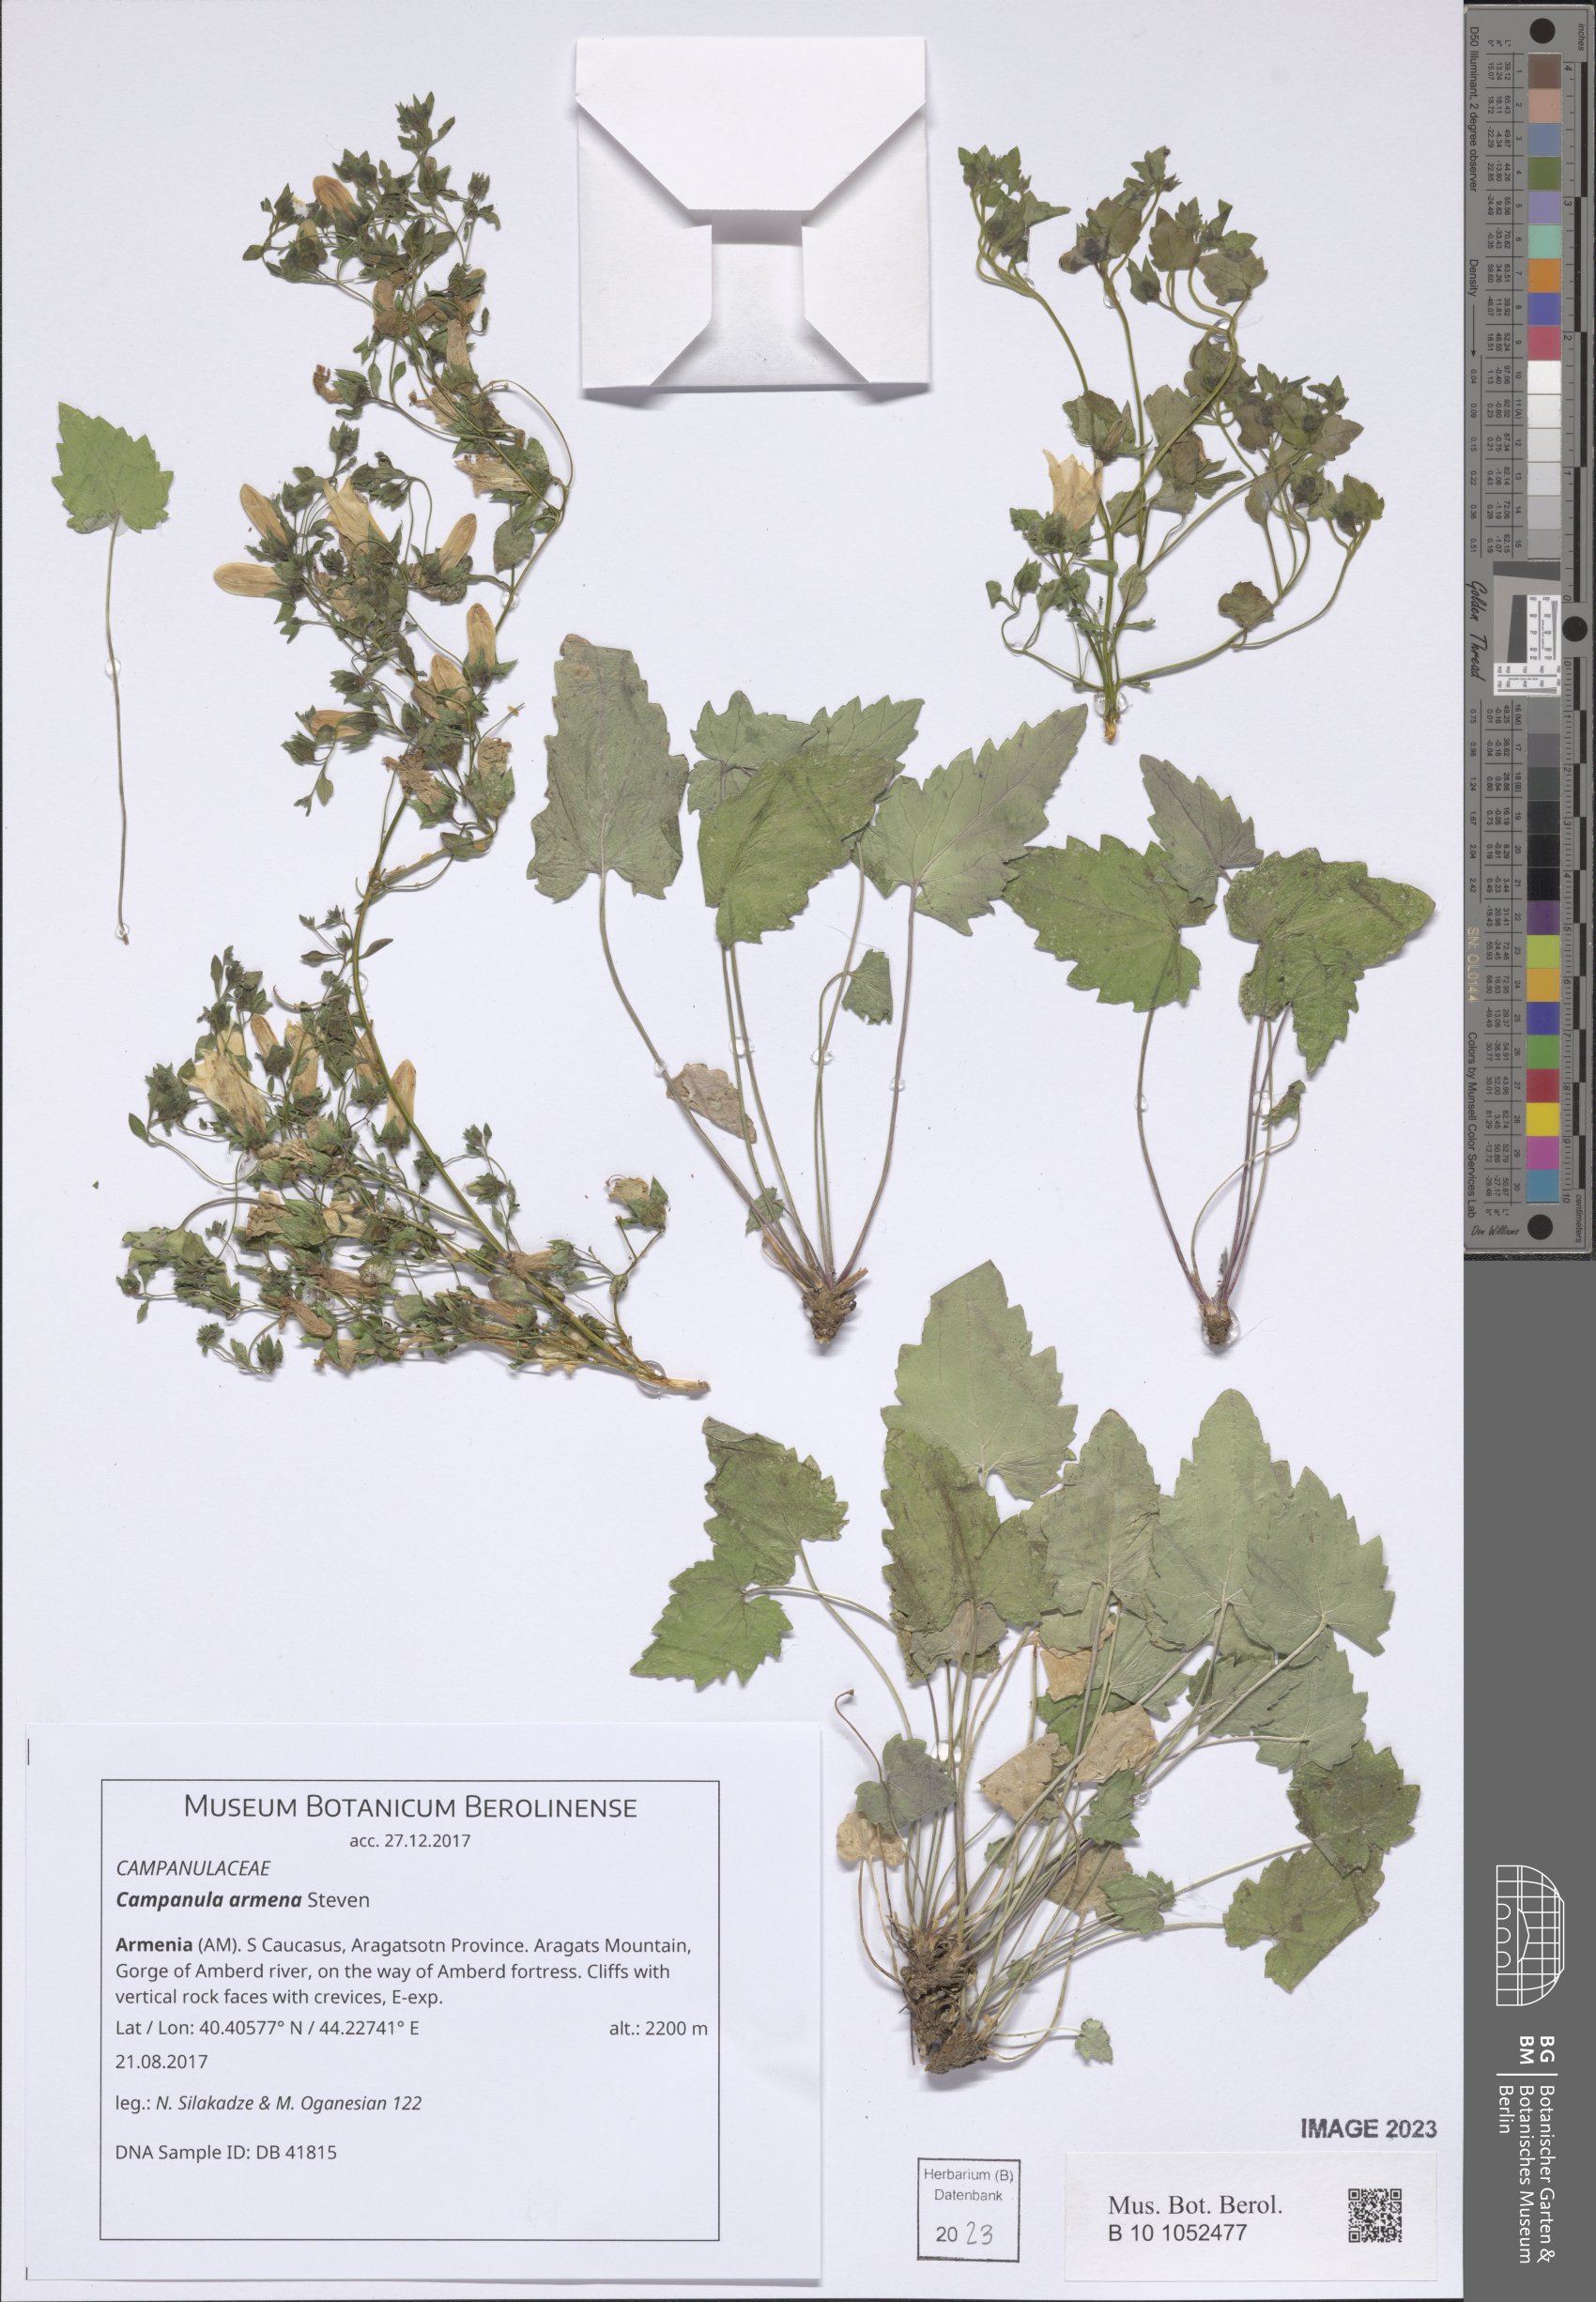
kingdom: Plantae
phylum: Tracheophyta
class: Magnoliopsida
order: Asterales
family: Campanulaceae
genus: Campanula
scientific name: Campanula armena
